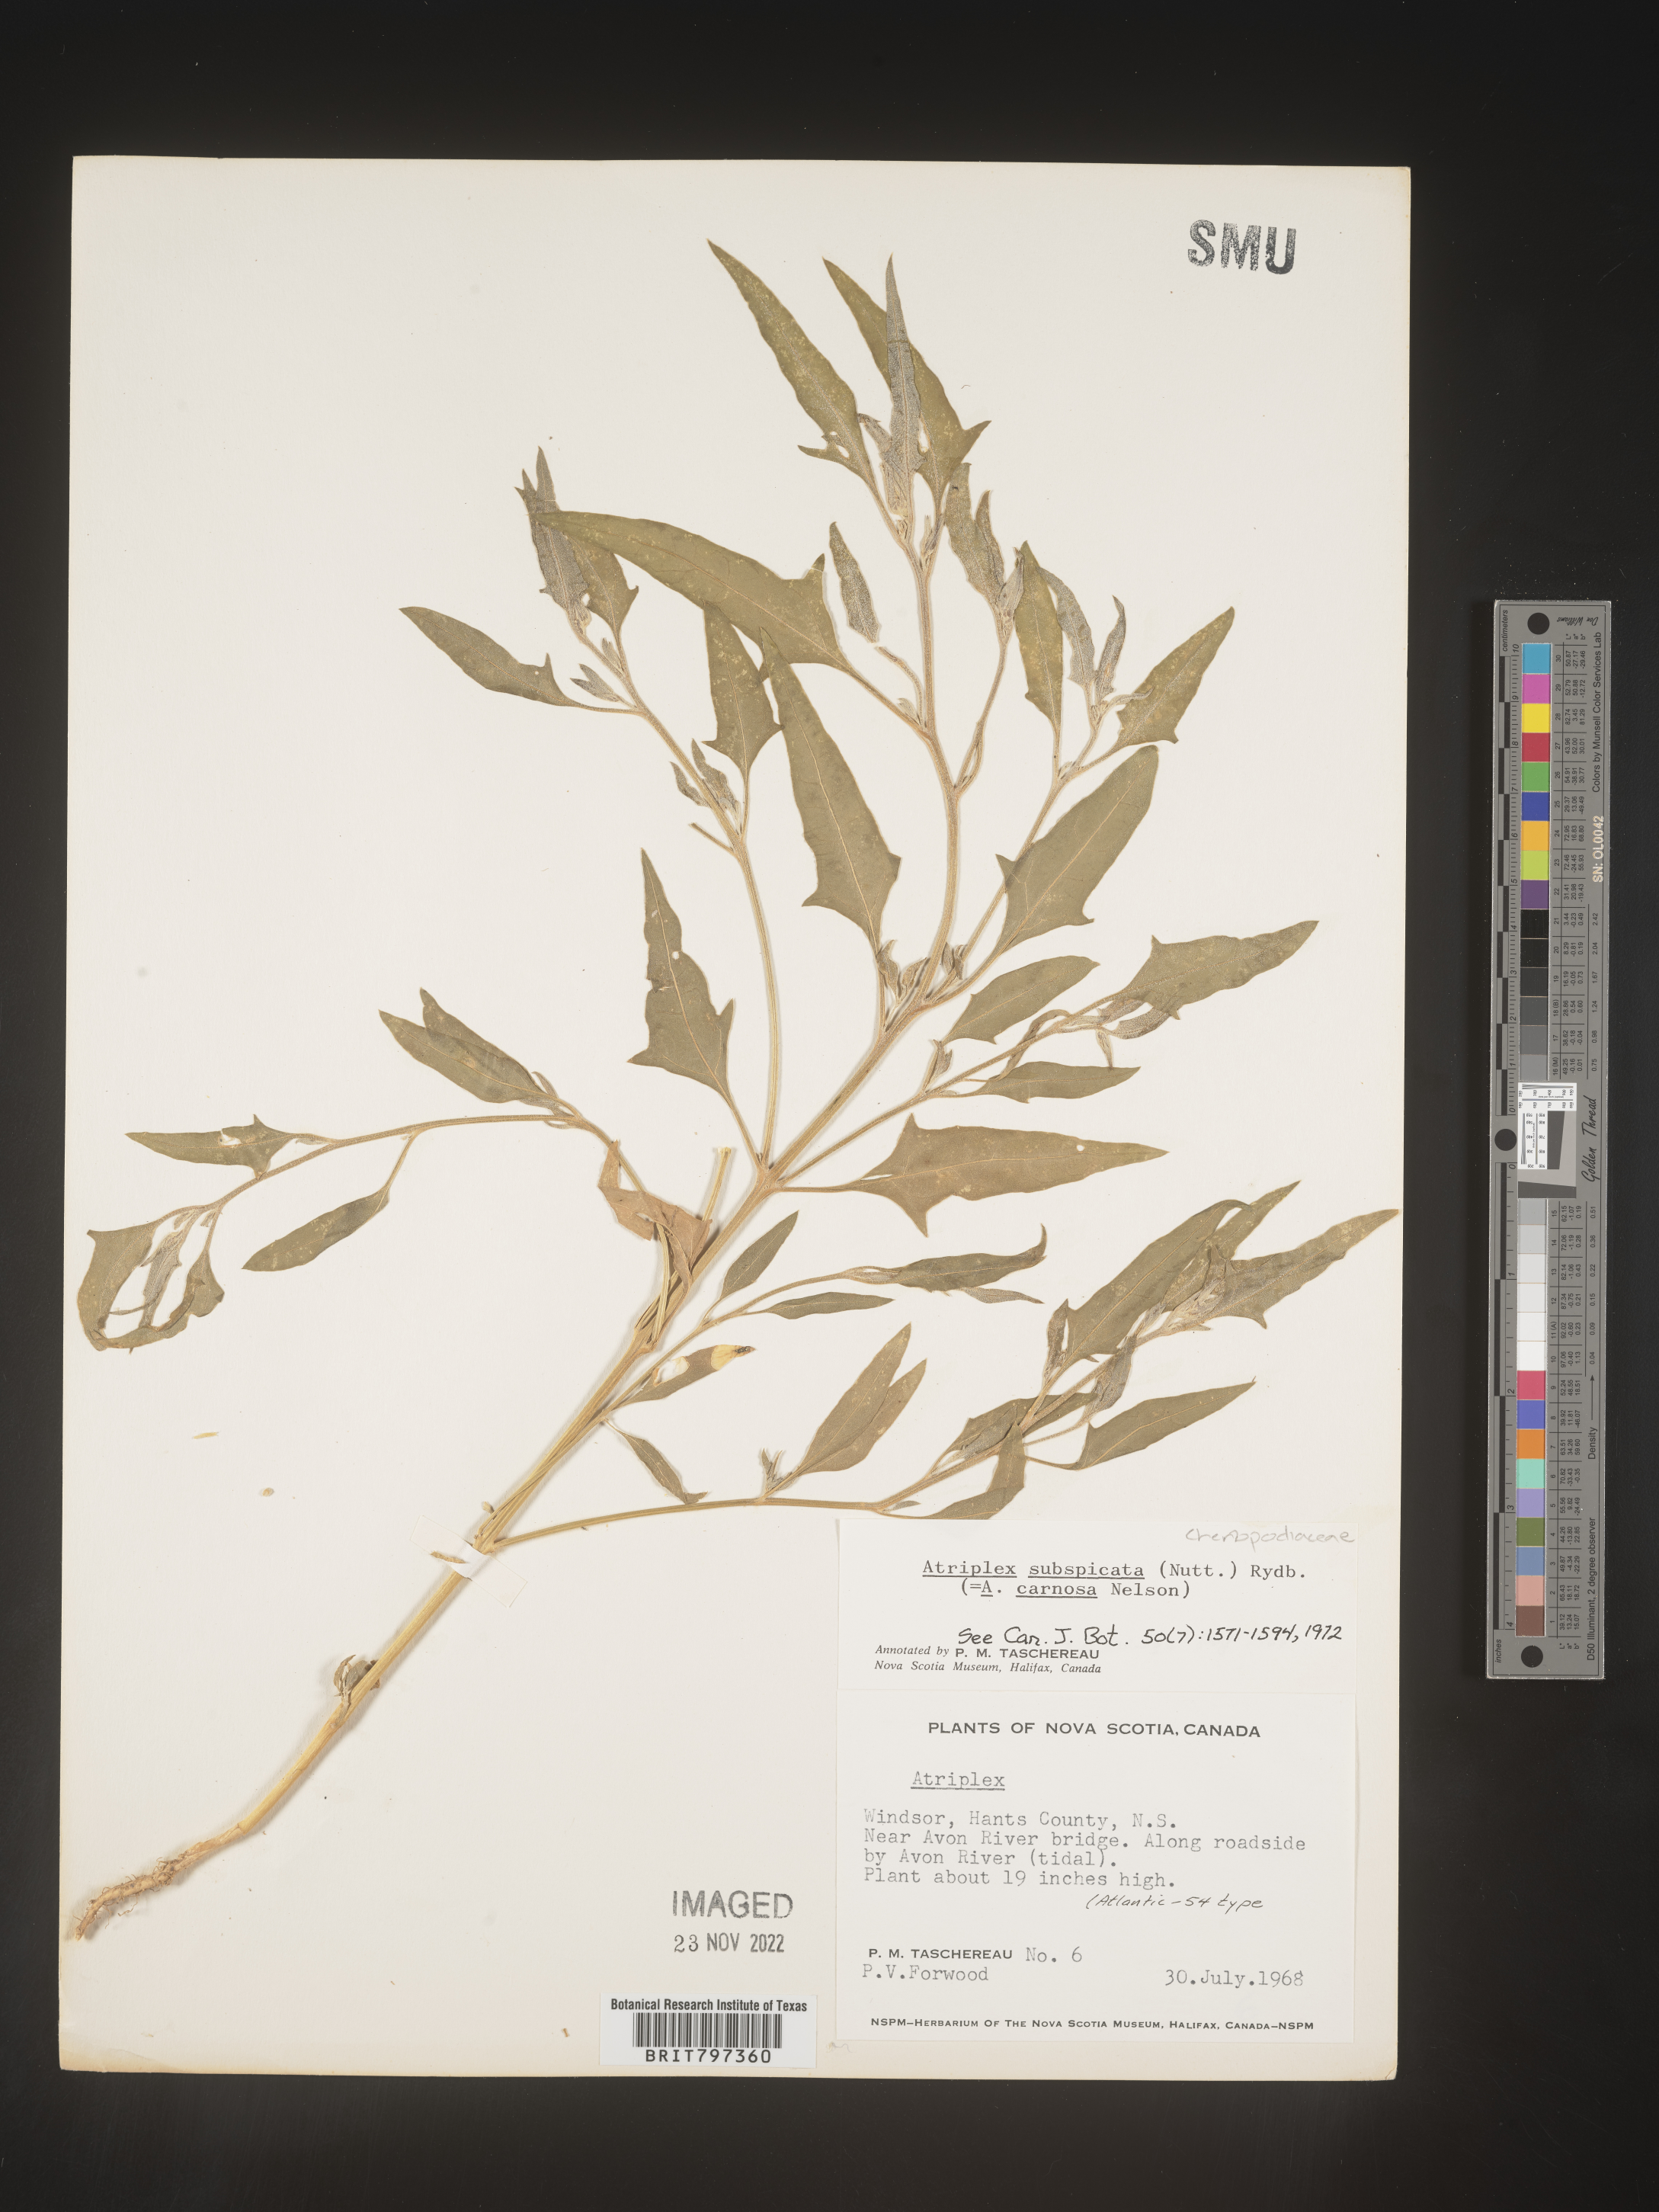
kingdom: Plantae
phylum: Tracheophyta
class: Magnoliopsida
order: Caryophyllales
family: Amaranthaceae
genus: Atriplex
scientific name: Atriplex
